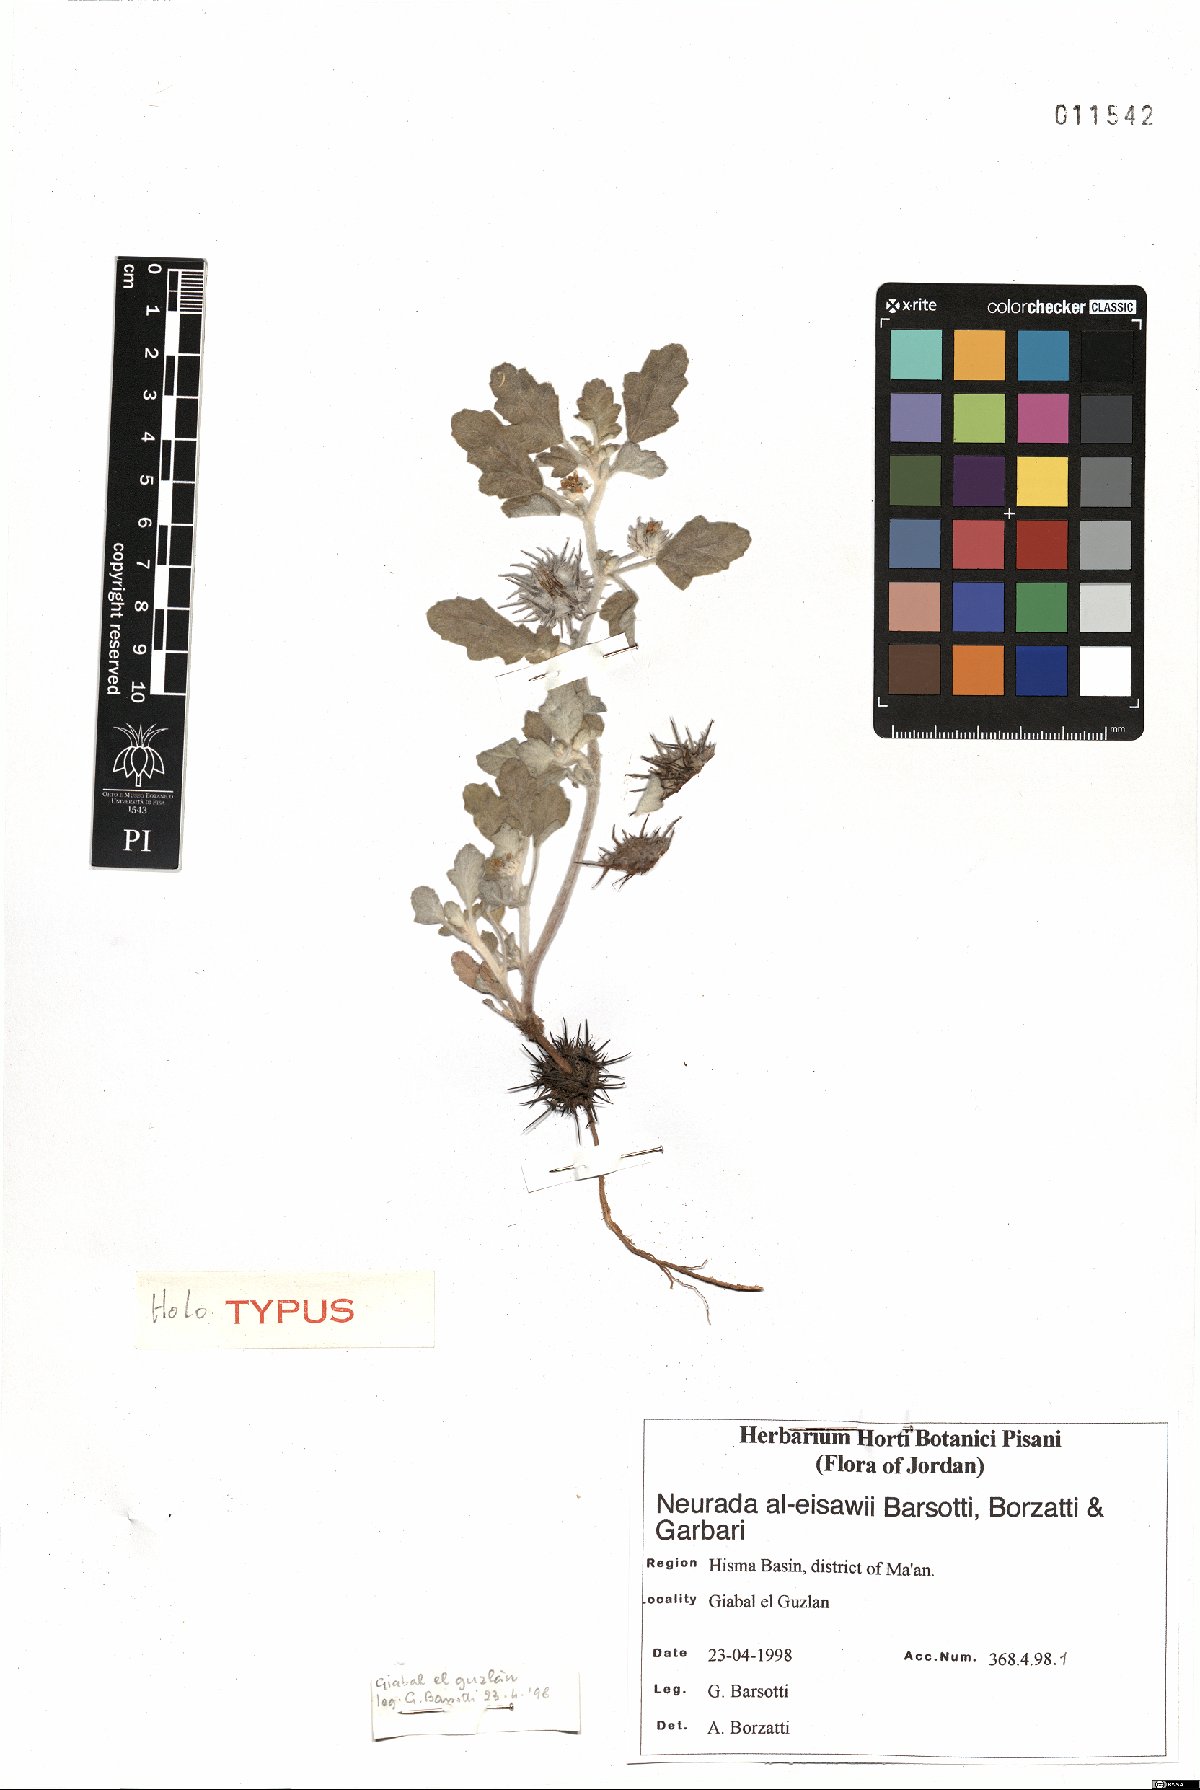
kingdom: Plantae
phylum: Tracheophyta
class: Magnoliopsida
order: Malvales
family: Neuradaceae
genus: Neurada
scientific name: Neurada procumbens
